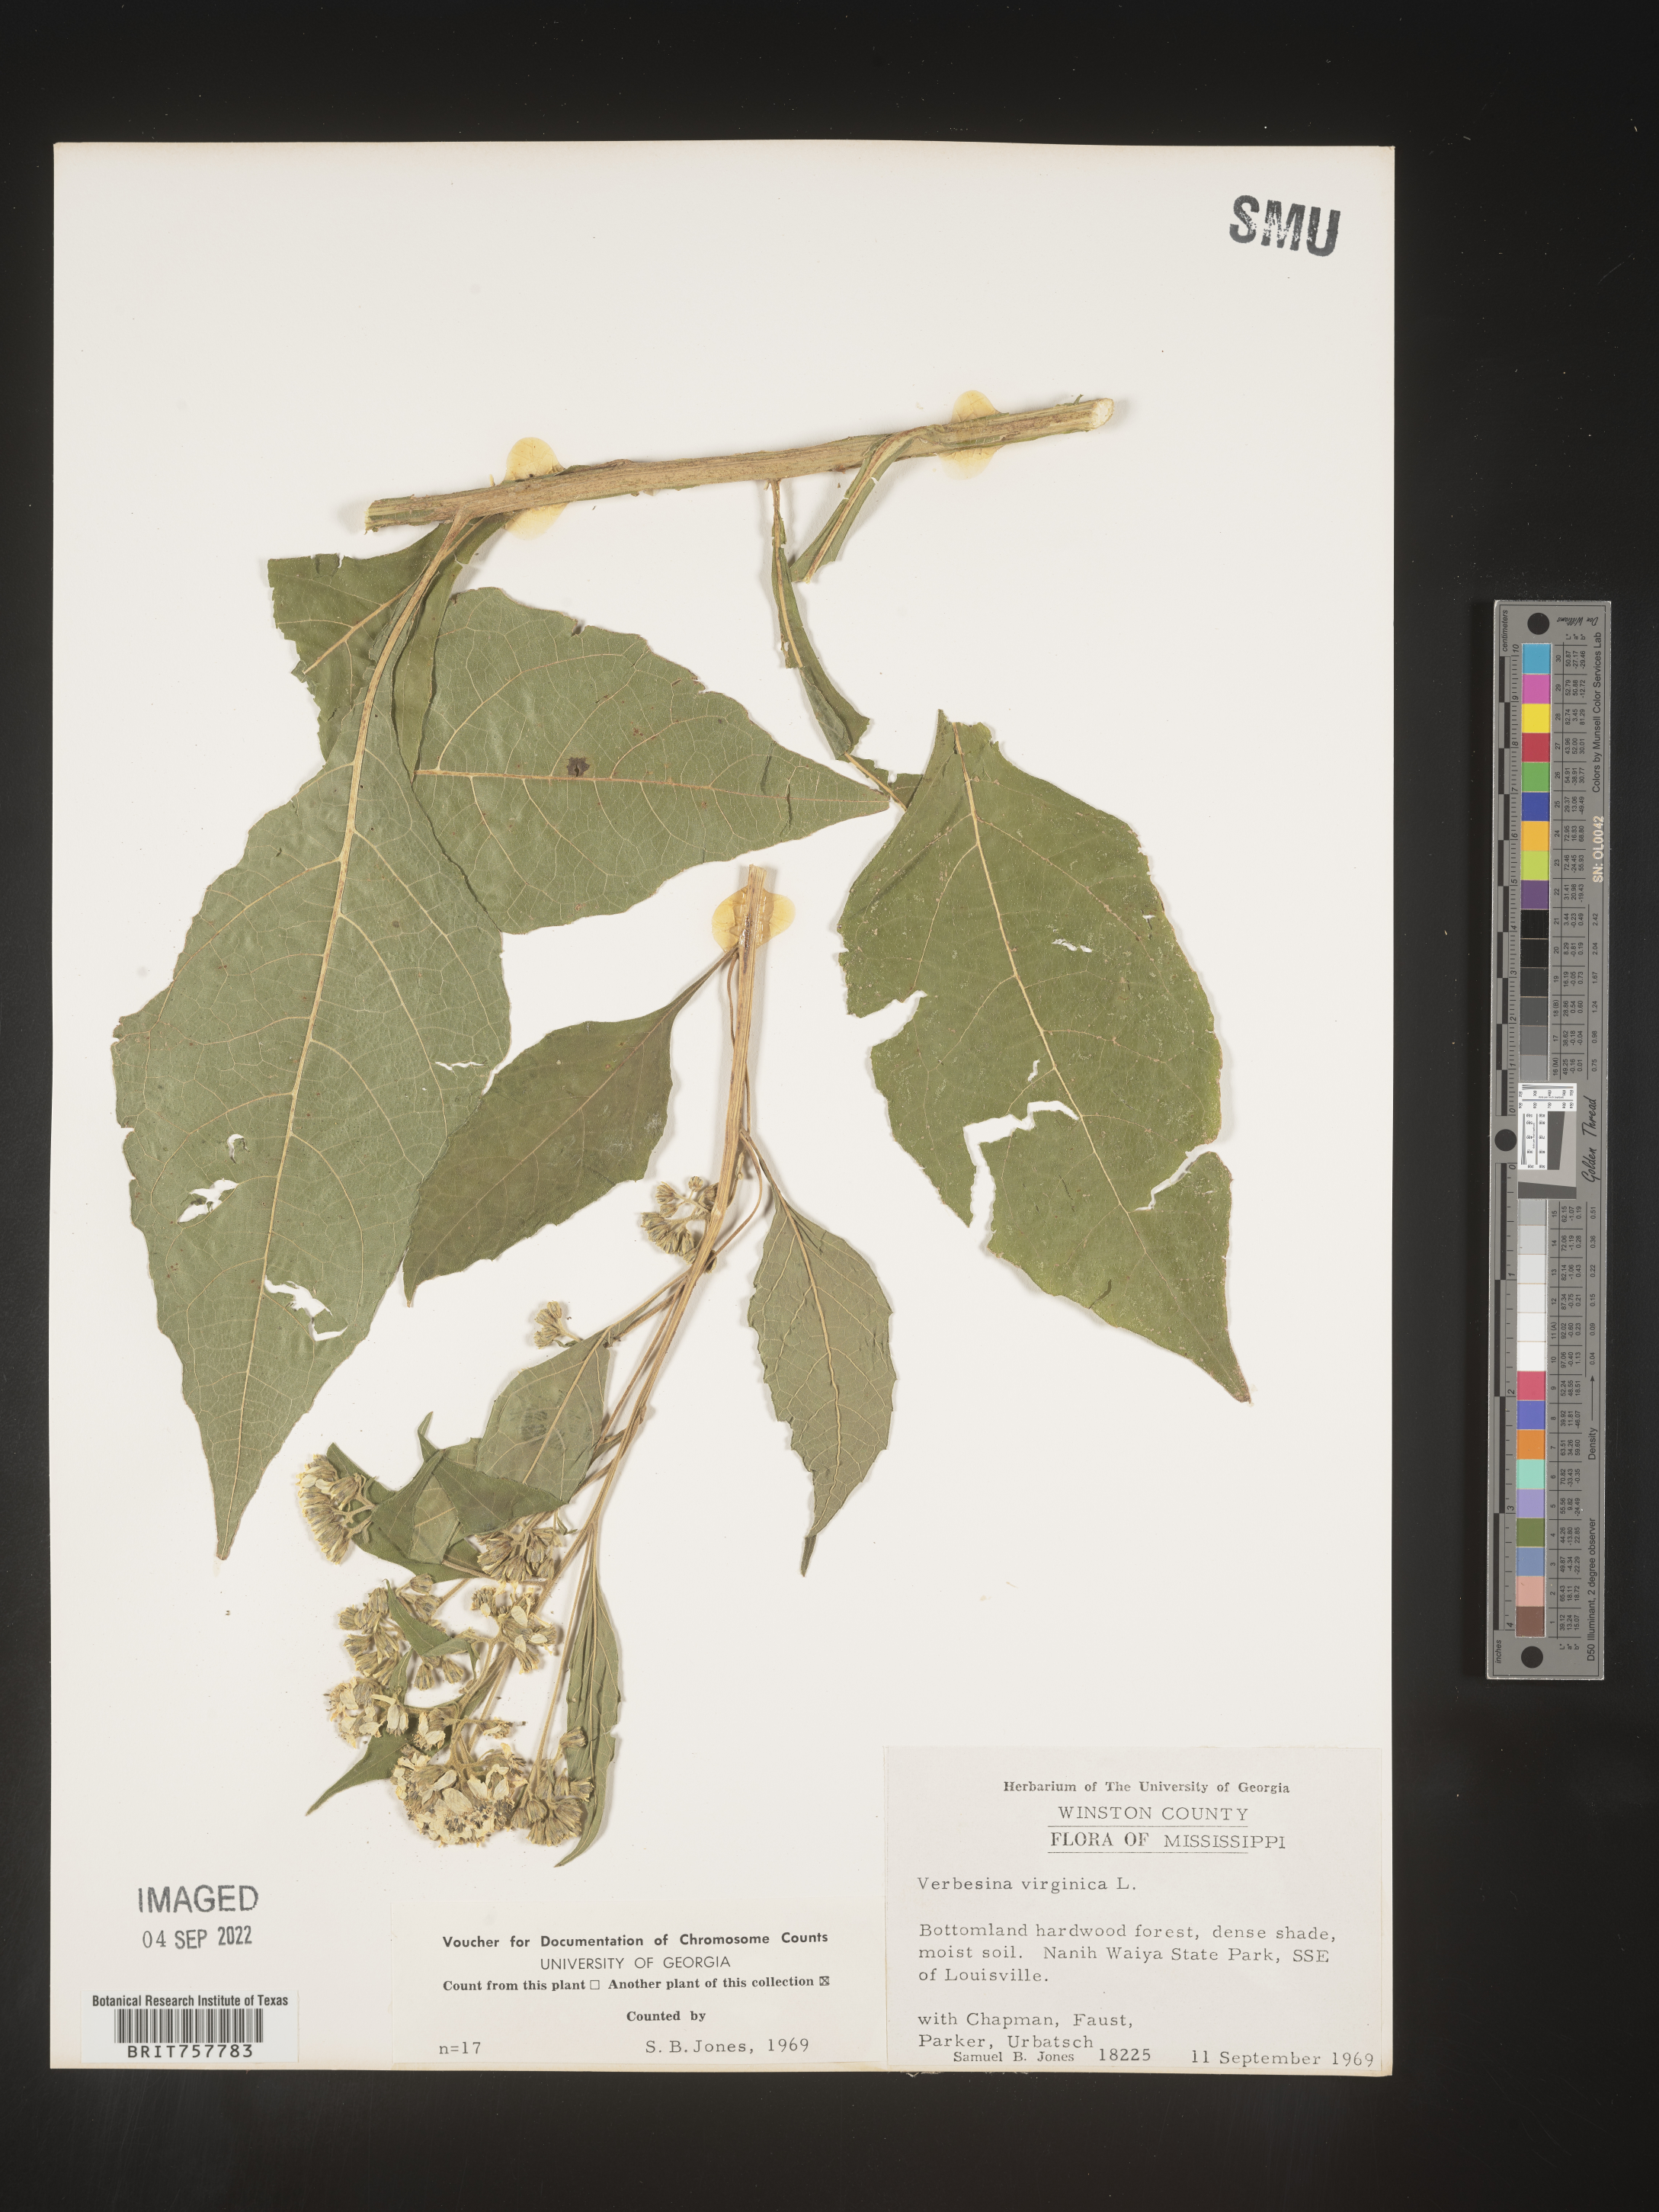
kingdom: Plantae
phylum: Tracheophyta
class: Magnoliopsida
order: Asterales
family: Asteraceae
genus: Verbesina
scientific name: Verbesina virginica
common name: Frostweed
